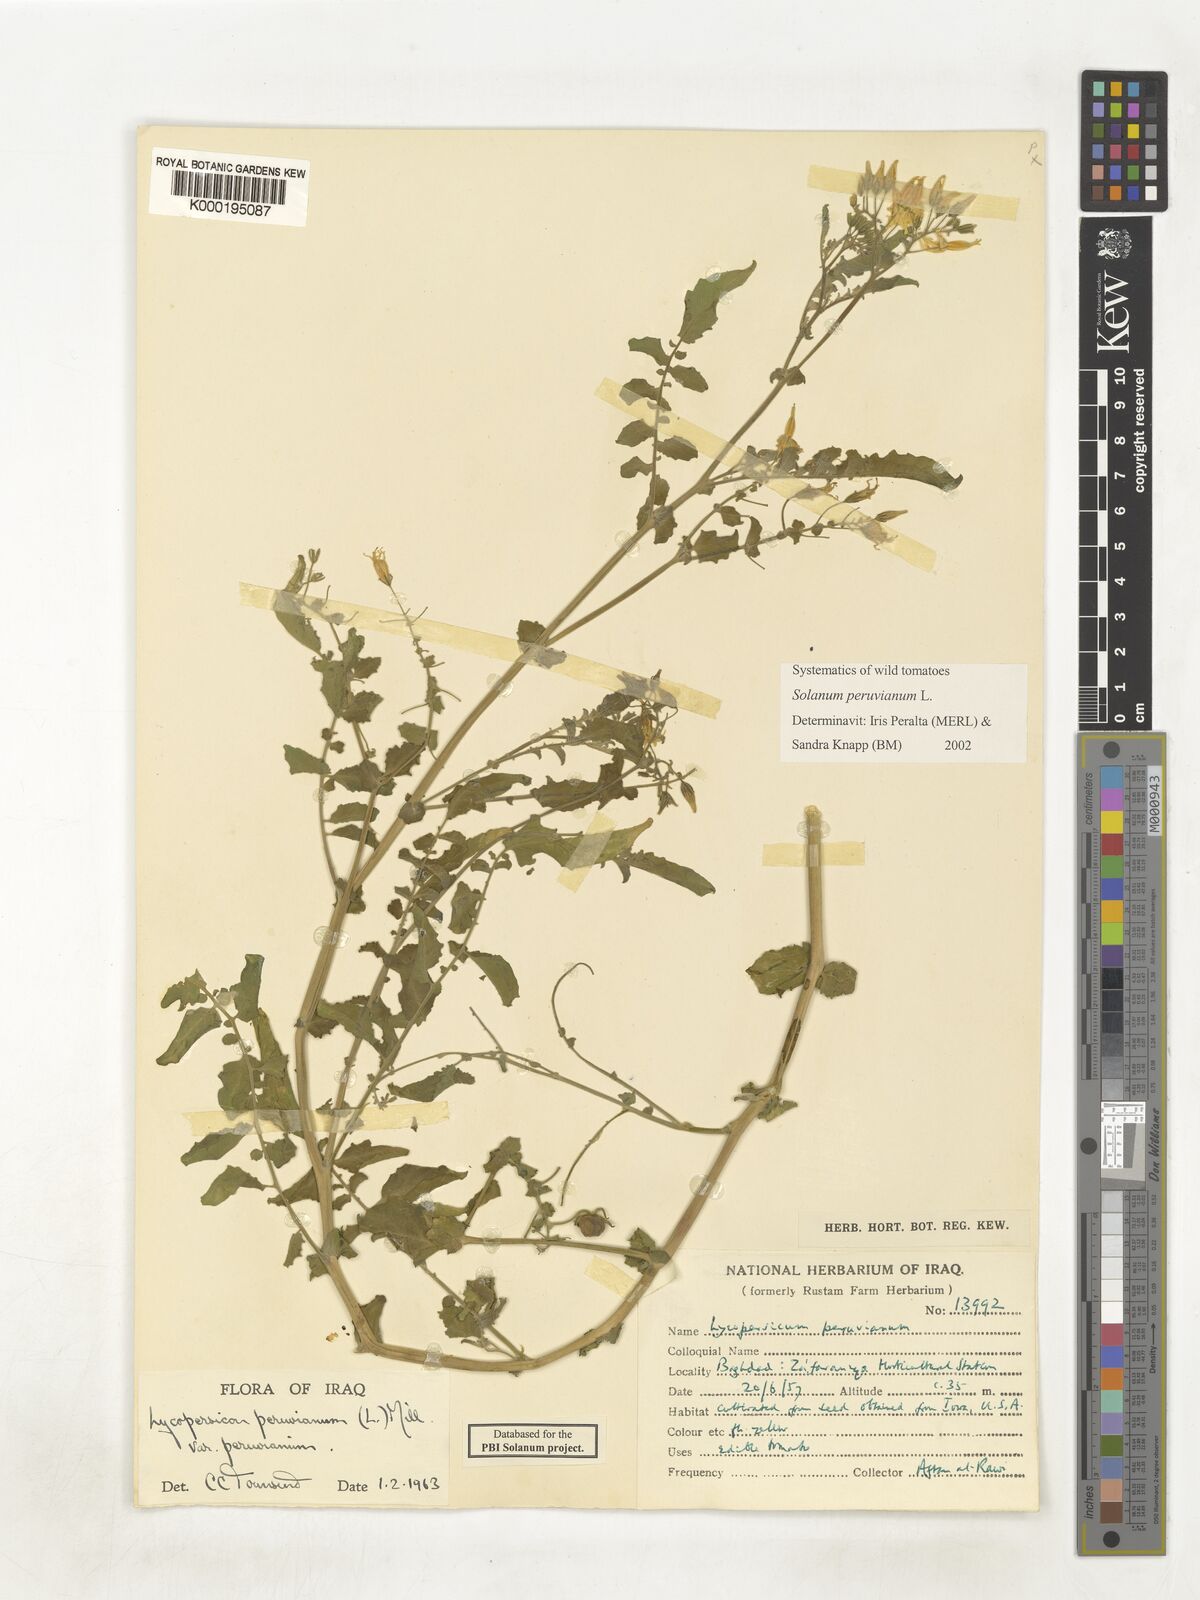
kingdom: Plantae
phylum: Tracheophyta
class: Magnoliopsida
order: Solanales
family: Solanaceae
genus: Solanum
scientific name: Solanum peruvianum
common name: Peruvian nightshade
